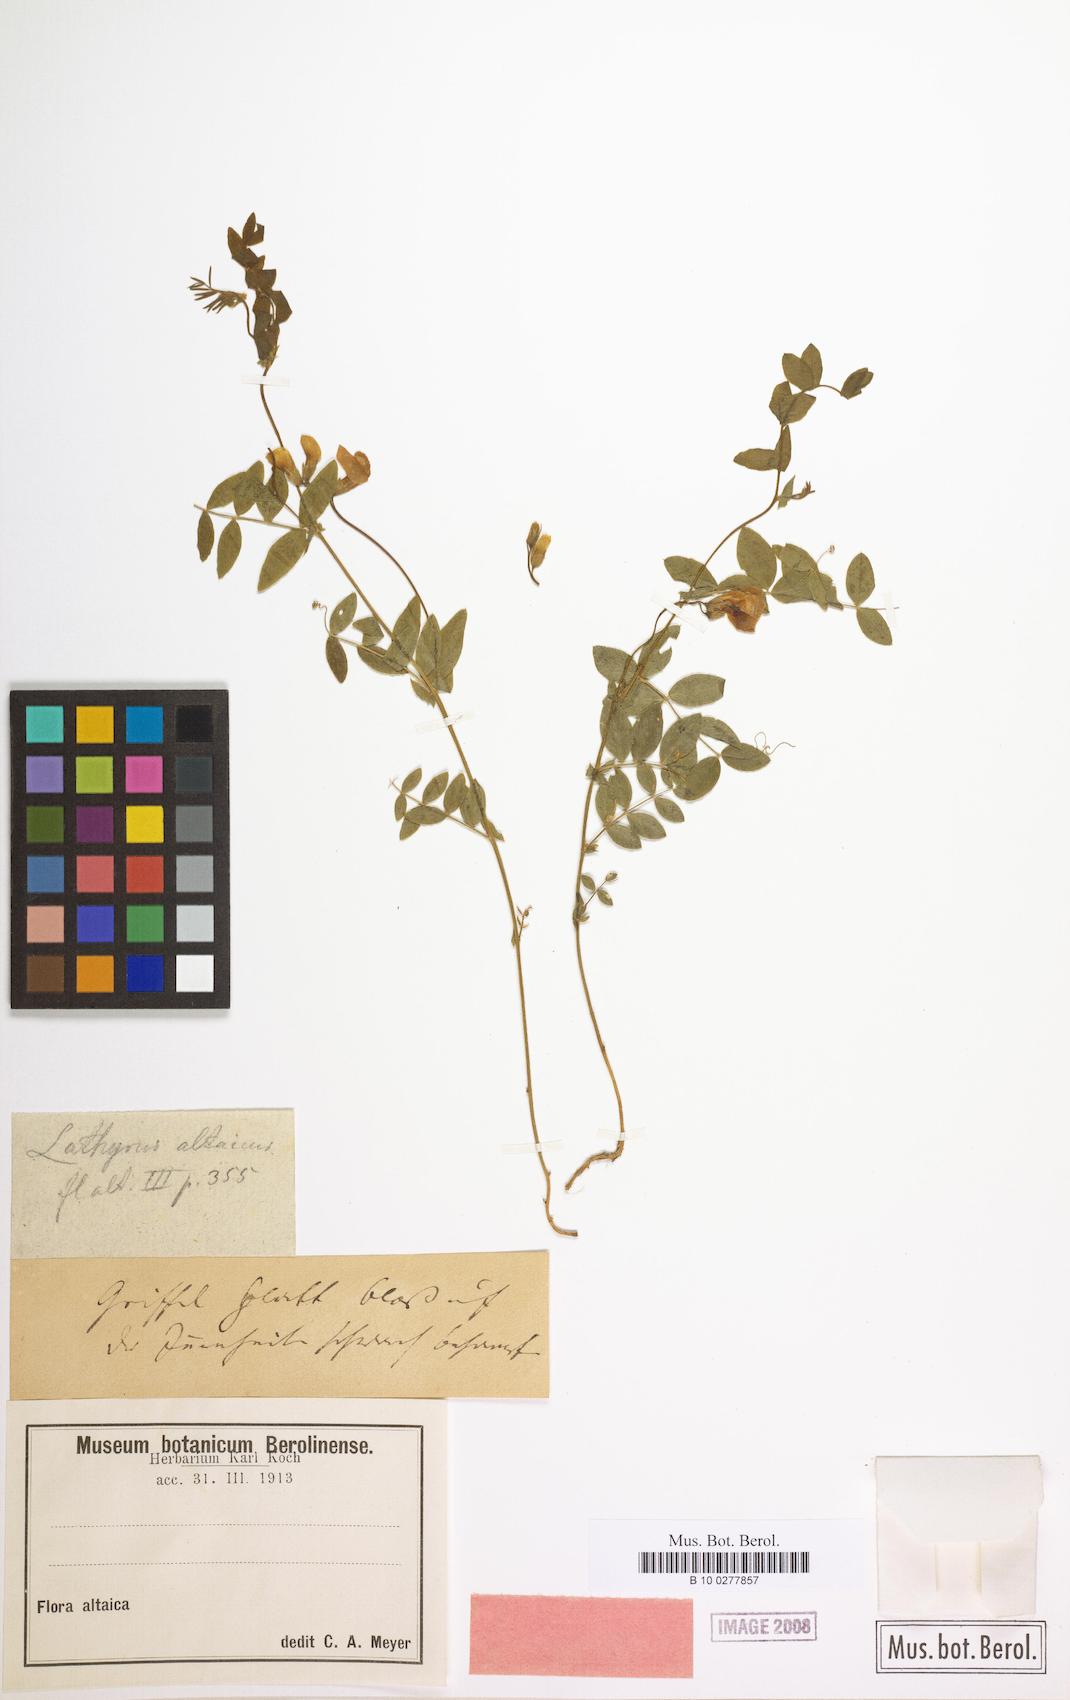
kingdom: Plantae
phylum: Tracheophyta
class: Magnoliopsida
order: Fabales
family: Fabaceae
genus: Lathyrus
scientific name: Lathyrus humilis
